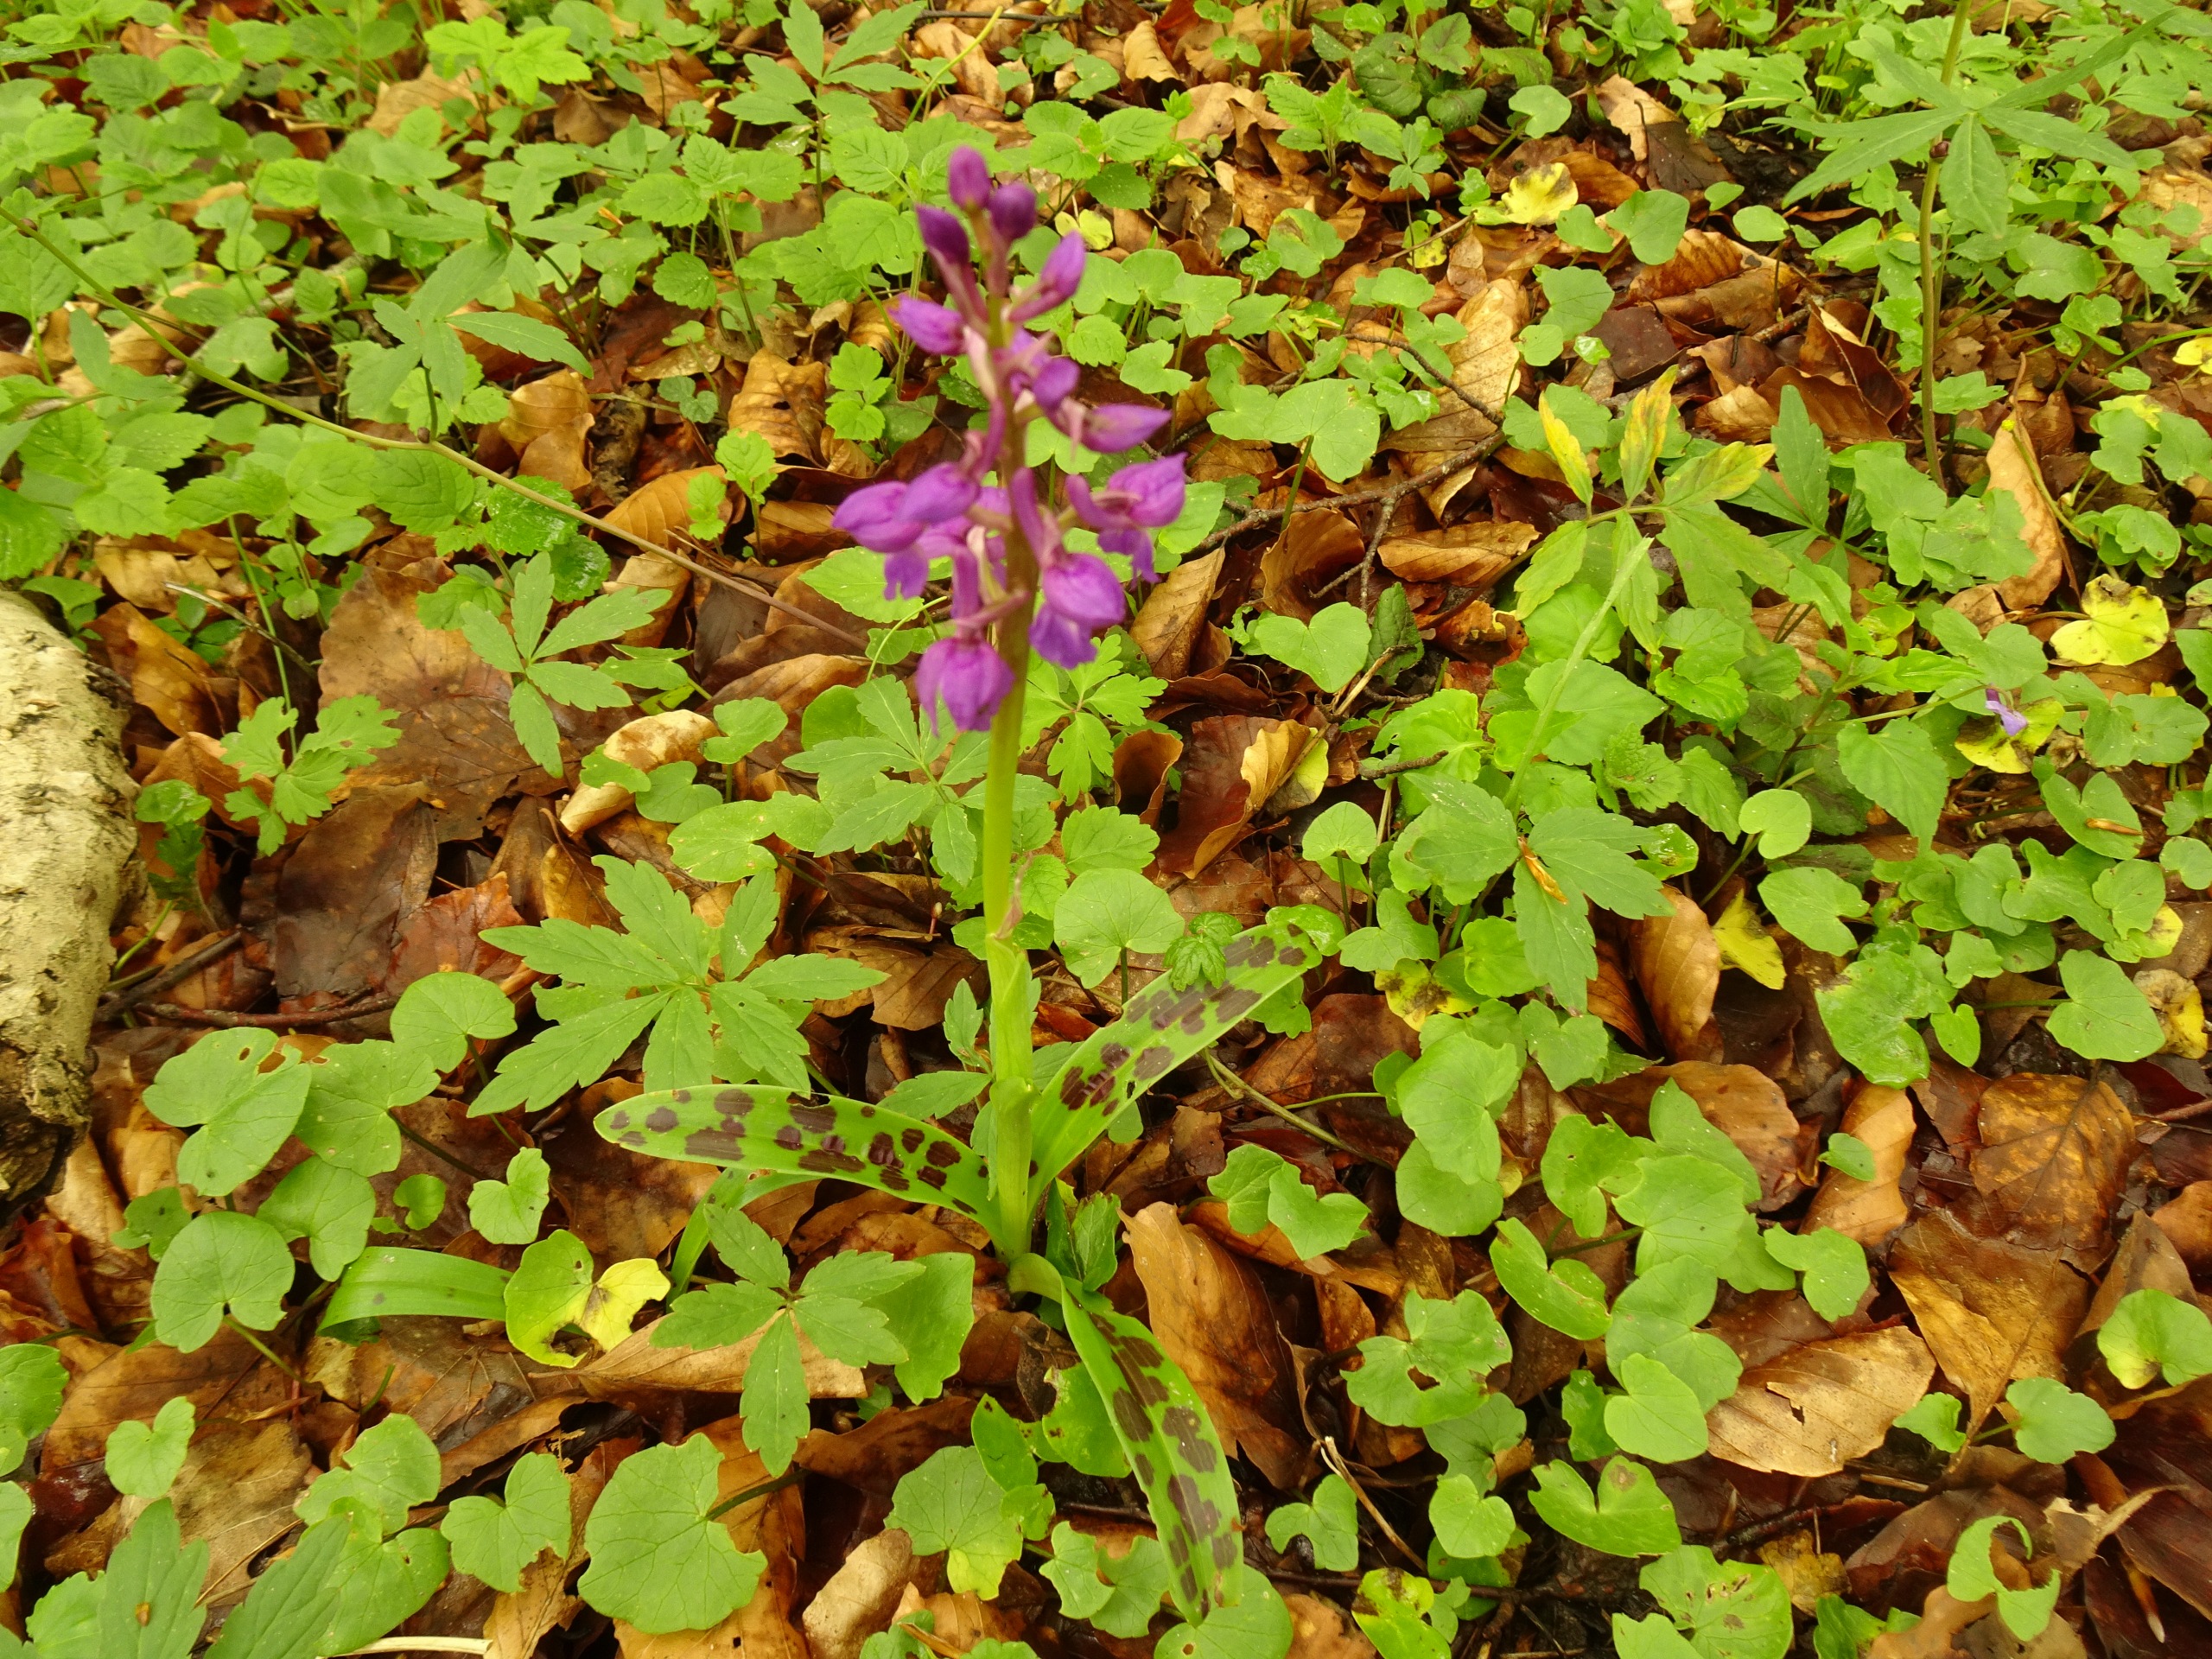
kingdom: Plantae
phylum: Tracheophyta
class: Liliopsida
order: Asparagales
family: Orchidaceae
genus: Orchis
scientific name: Orchis mascula
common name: Tyndakset gøgeurt
